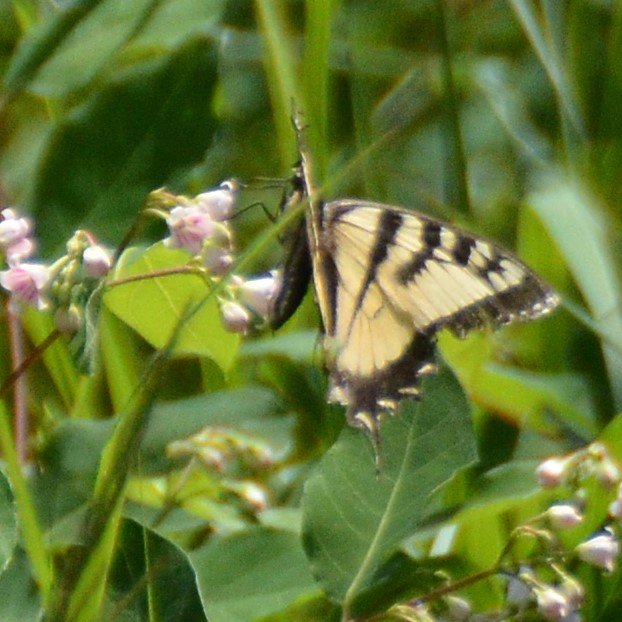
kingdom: Animalia
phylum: Arthropoda
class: Insecta
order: Lepidoptera
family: Papilionidae
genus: Pterourus
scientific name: Pterourus canadensis
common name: Canadian Tiger Swallowtail
